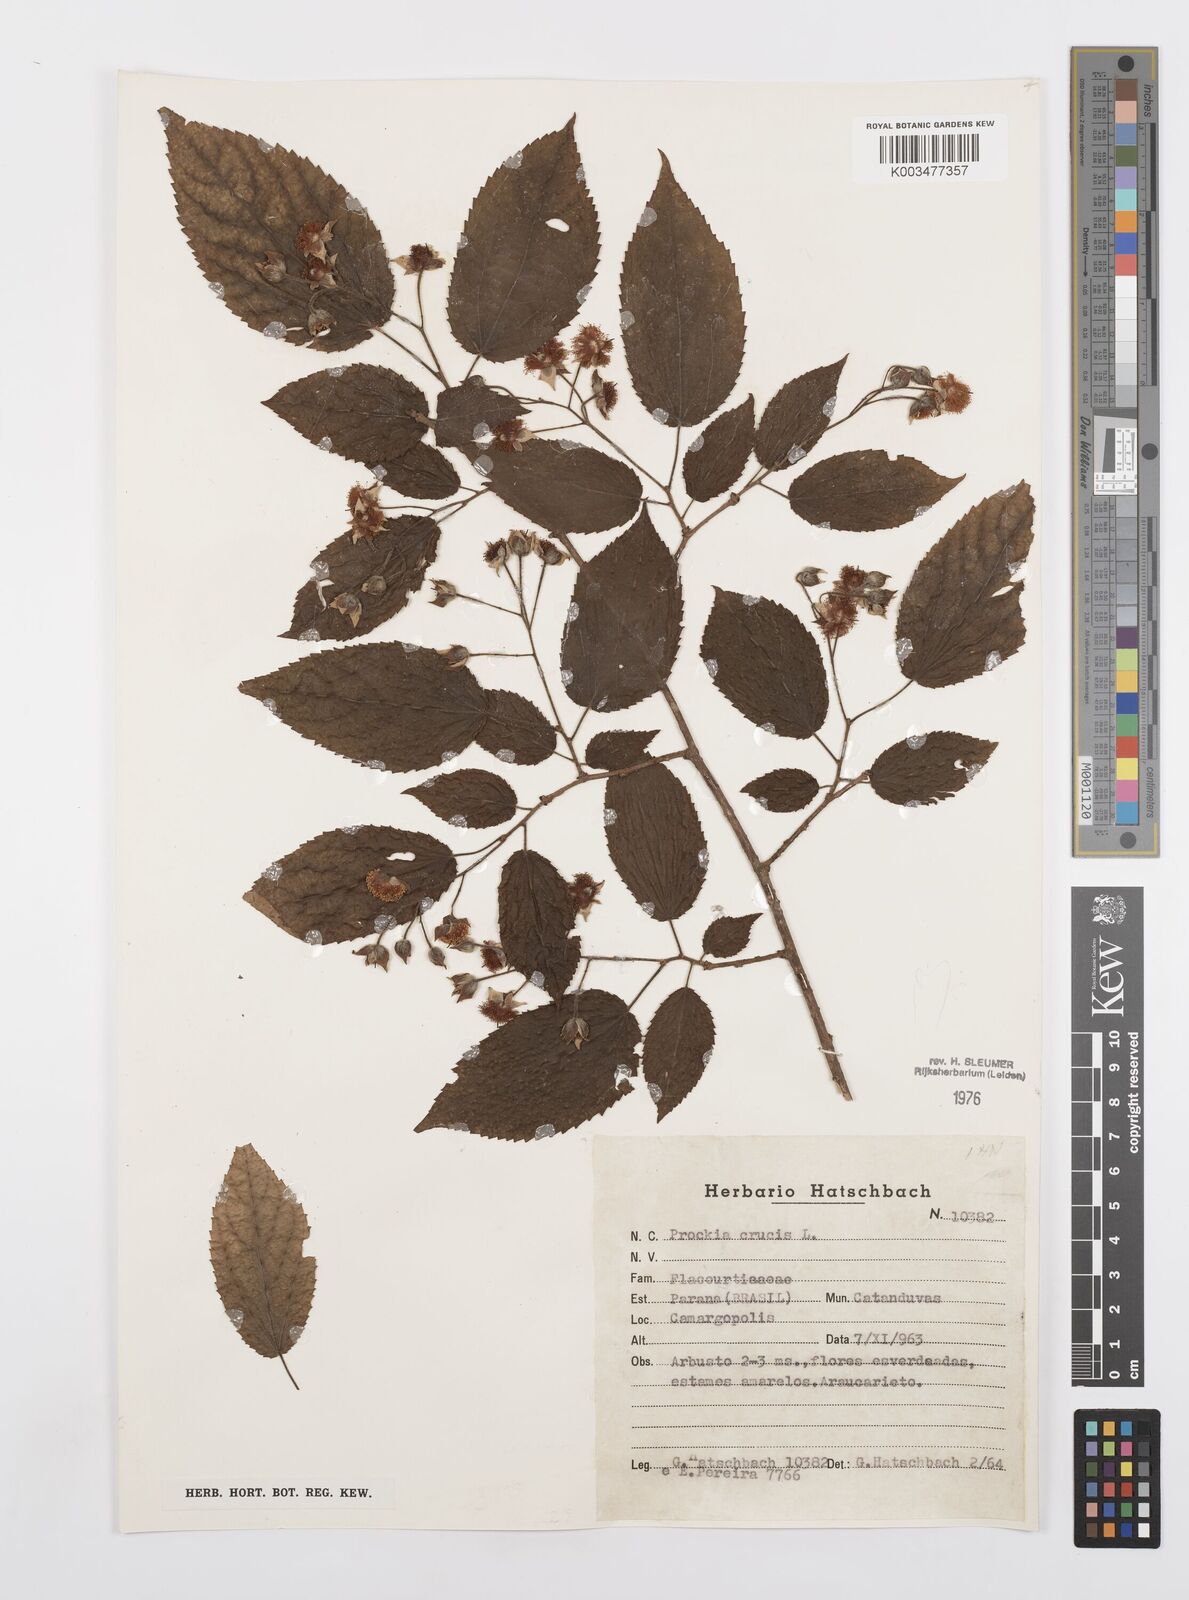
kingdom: Plantae
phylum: Tracheophyta
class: Magnoliopsida
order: Malpighiales
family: Salicaceae
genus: Prockia
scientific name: Prockia crucis
